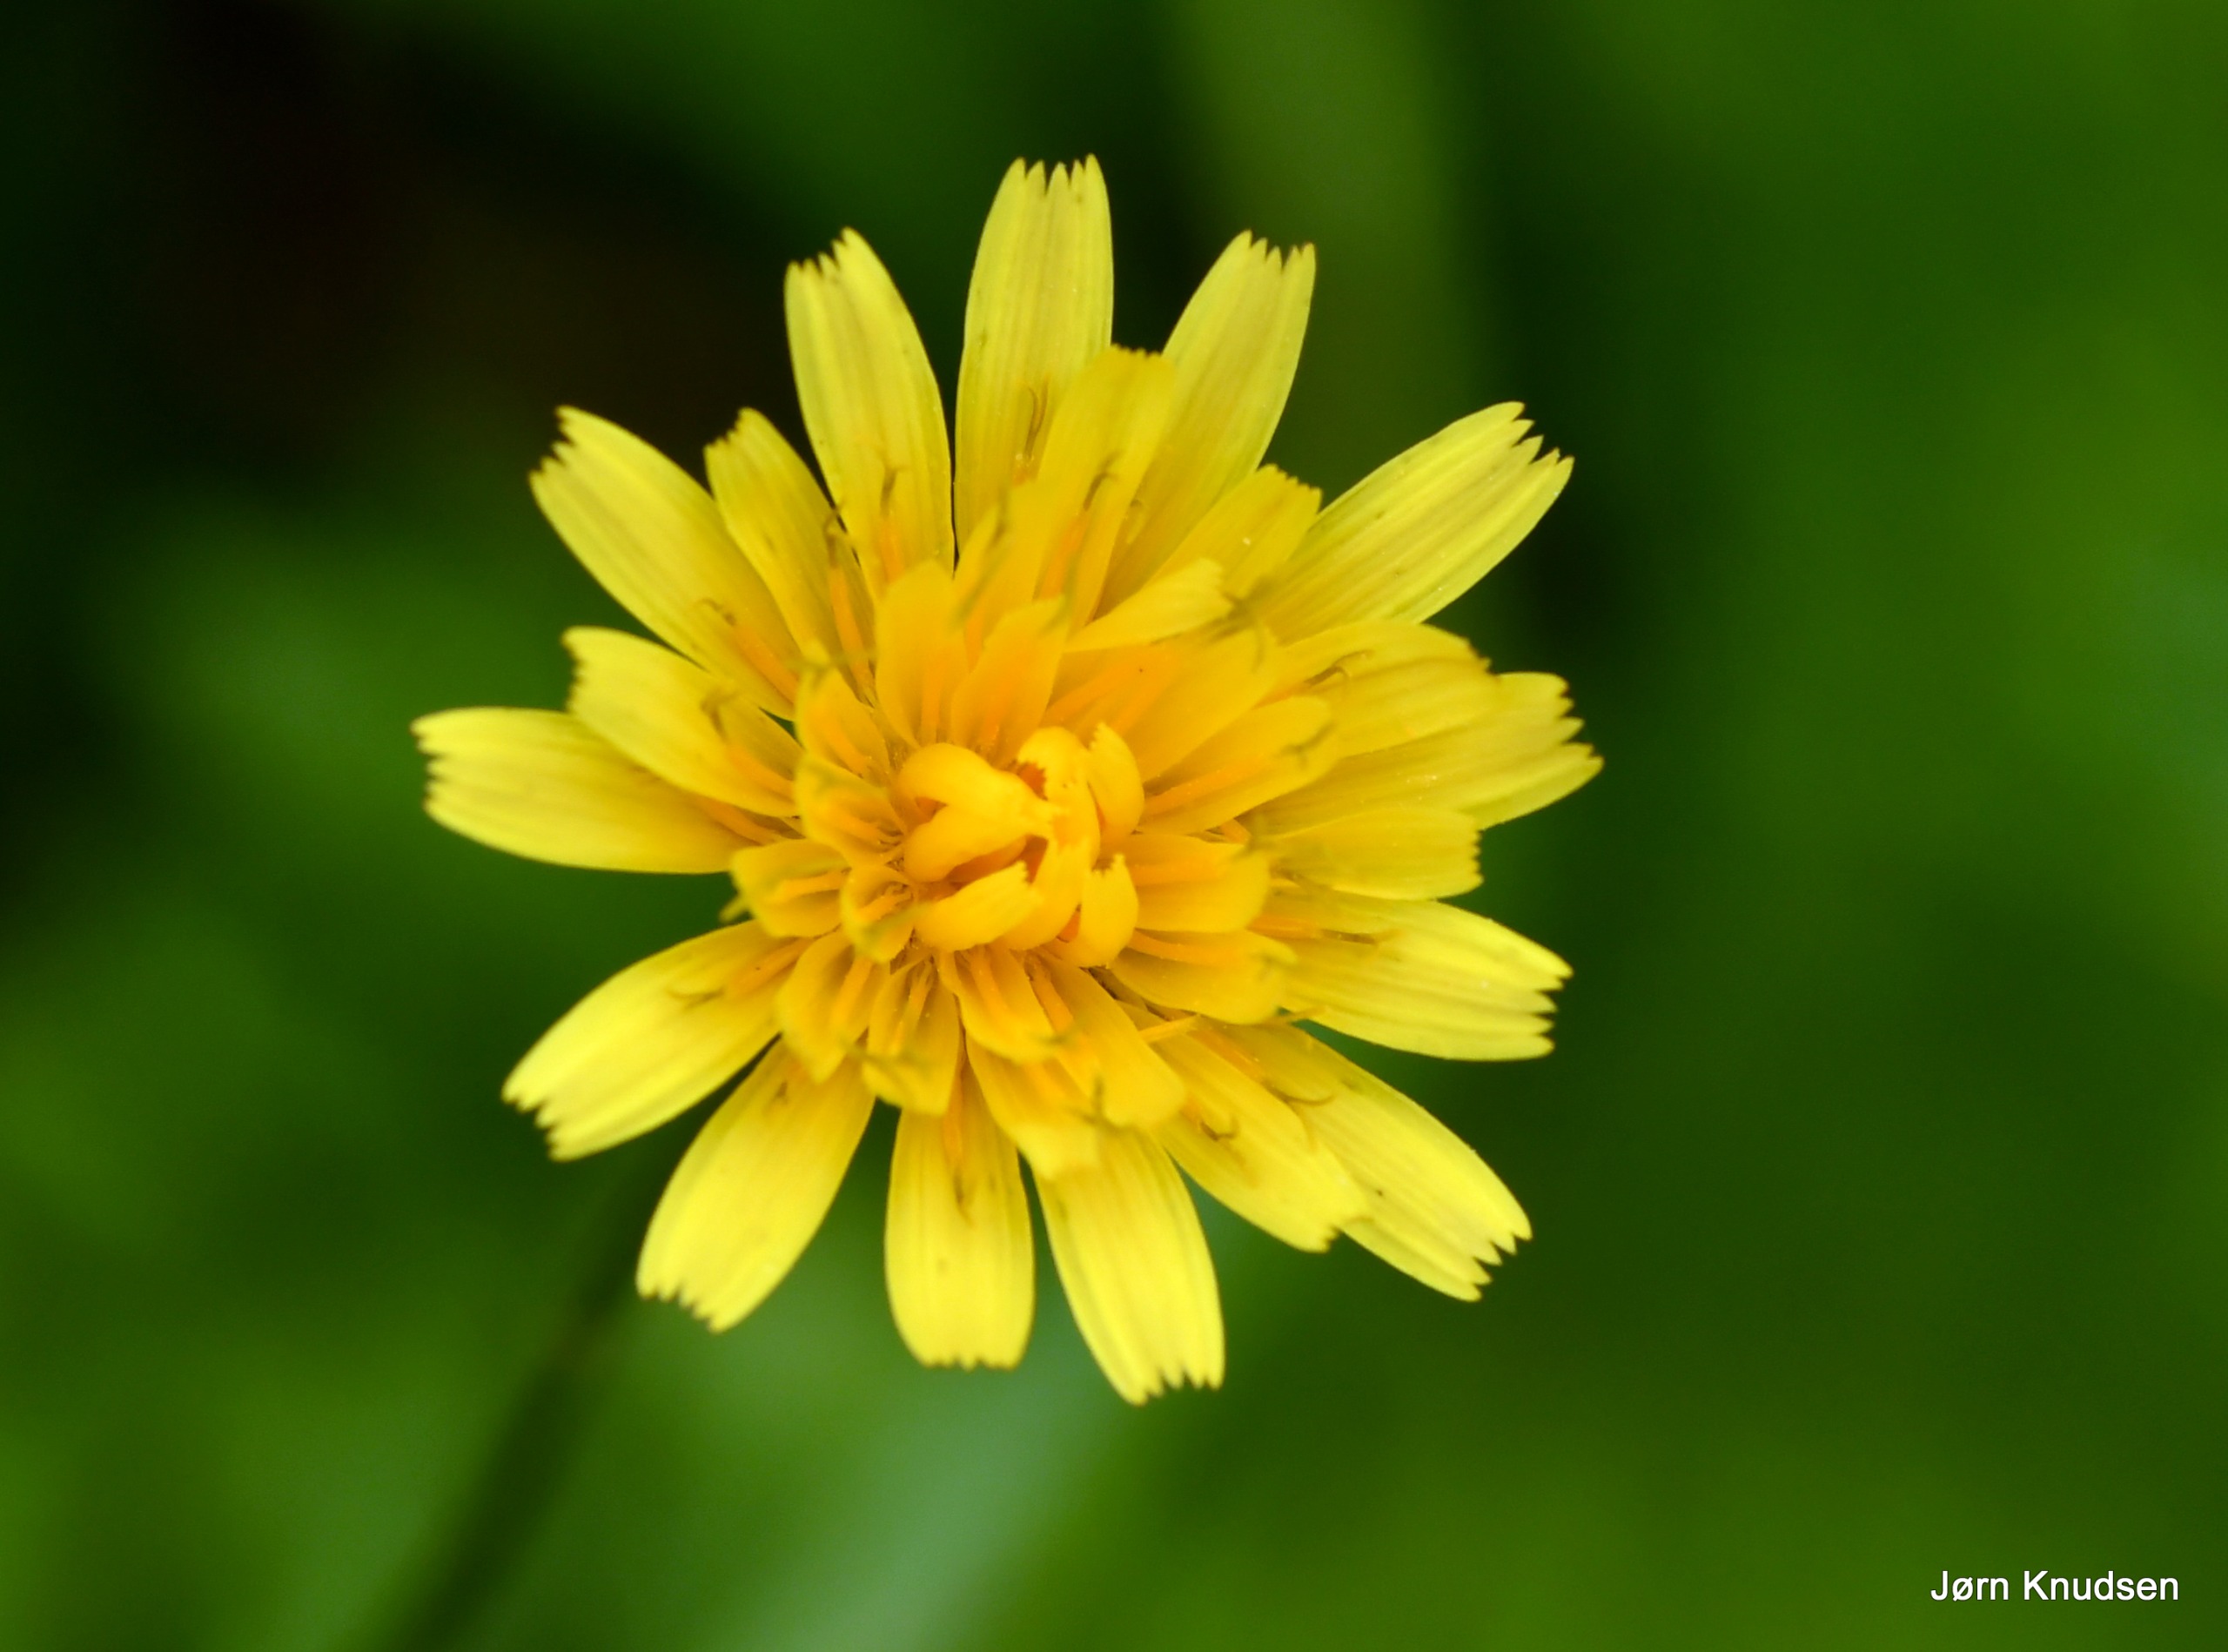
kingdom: Plantae
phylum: Tracheophyta
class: Magnoliopsida
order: Asterales
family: Asteraceae
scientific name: Asteraceae
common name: Kurvblomstfamilien
